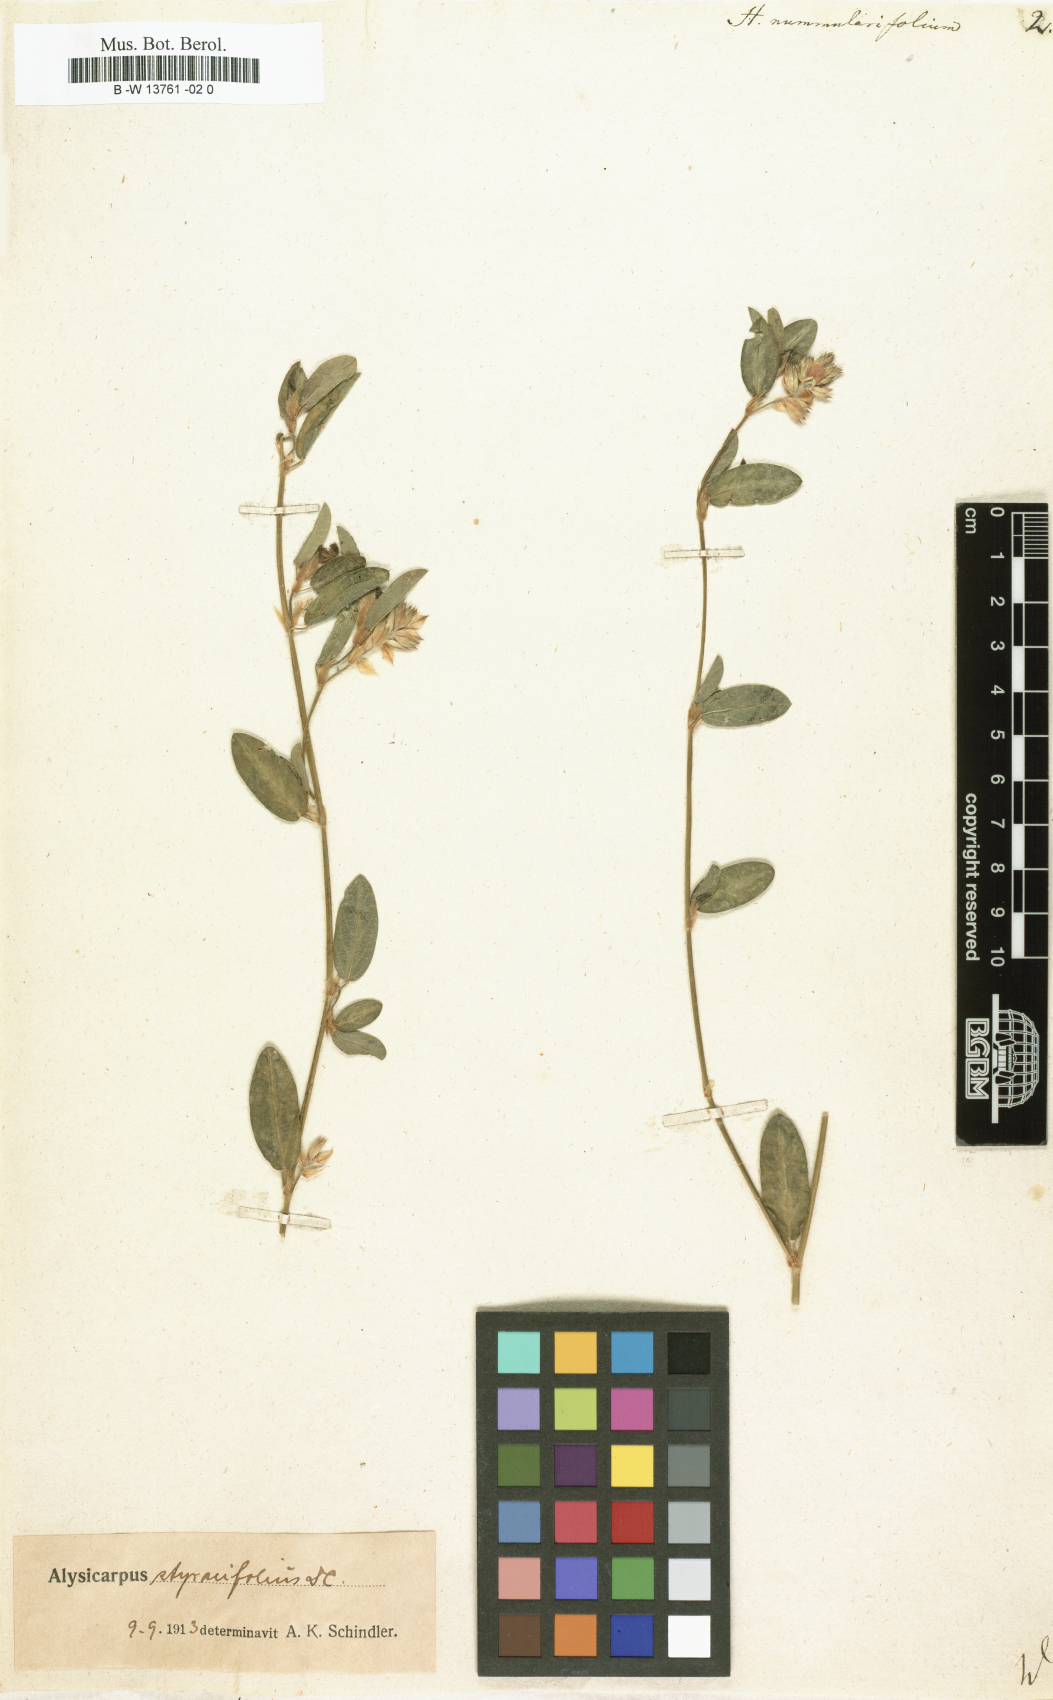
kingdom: Plantae
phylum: Tracheophyta
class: Magnoliopsida
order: Fabales
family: Fabaceae
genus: Indigofera
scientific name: Indigofera nummulariifolia
